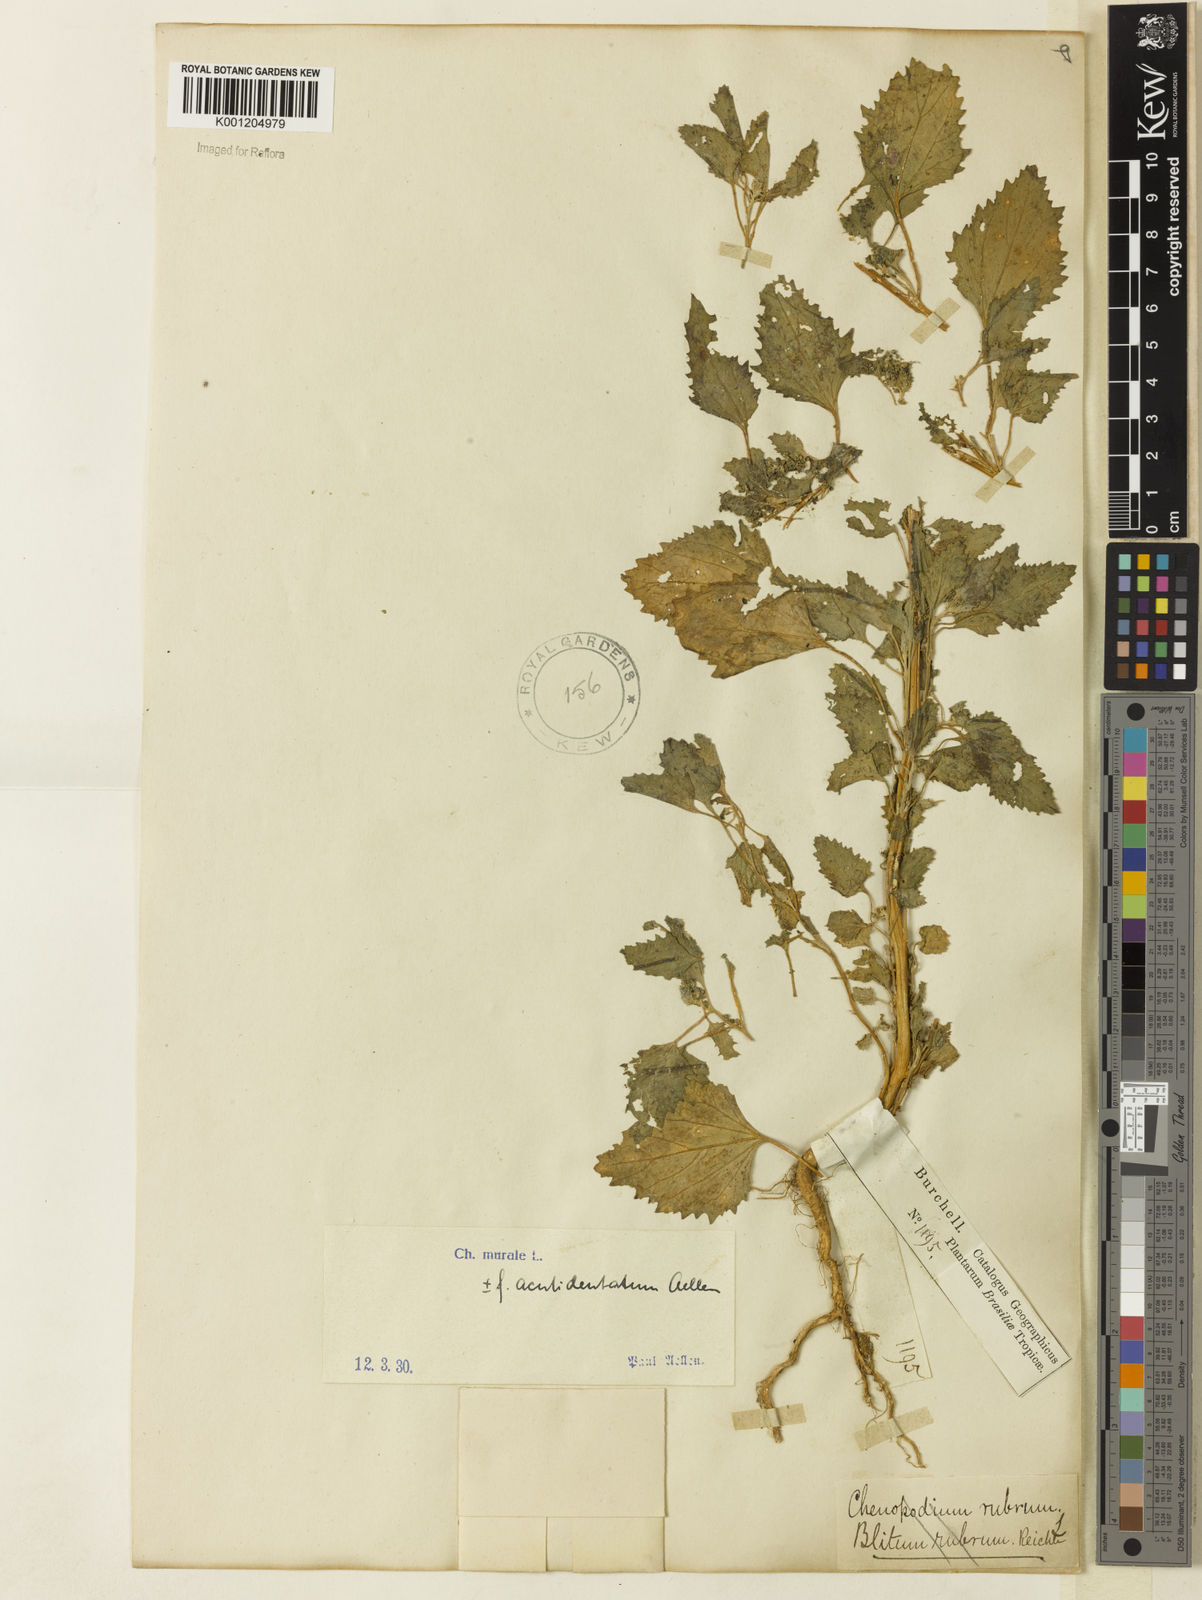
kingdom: Plantae
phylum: Tracheophyta
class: Magnoliopsida
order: Caryophyllales
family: Amaranthaceae
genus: Chenopodiastrum
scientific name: Chenopodiastrum murale
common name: Sowbane
